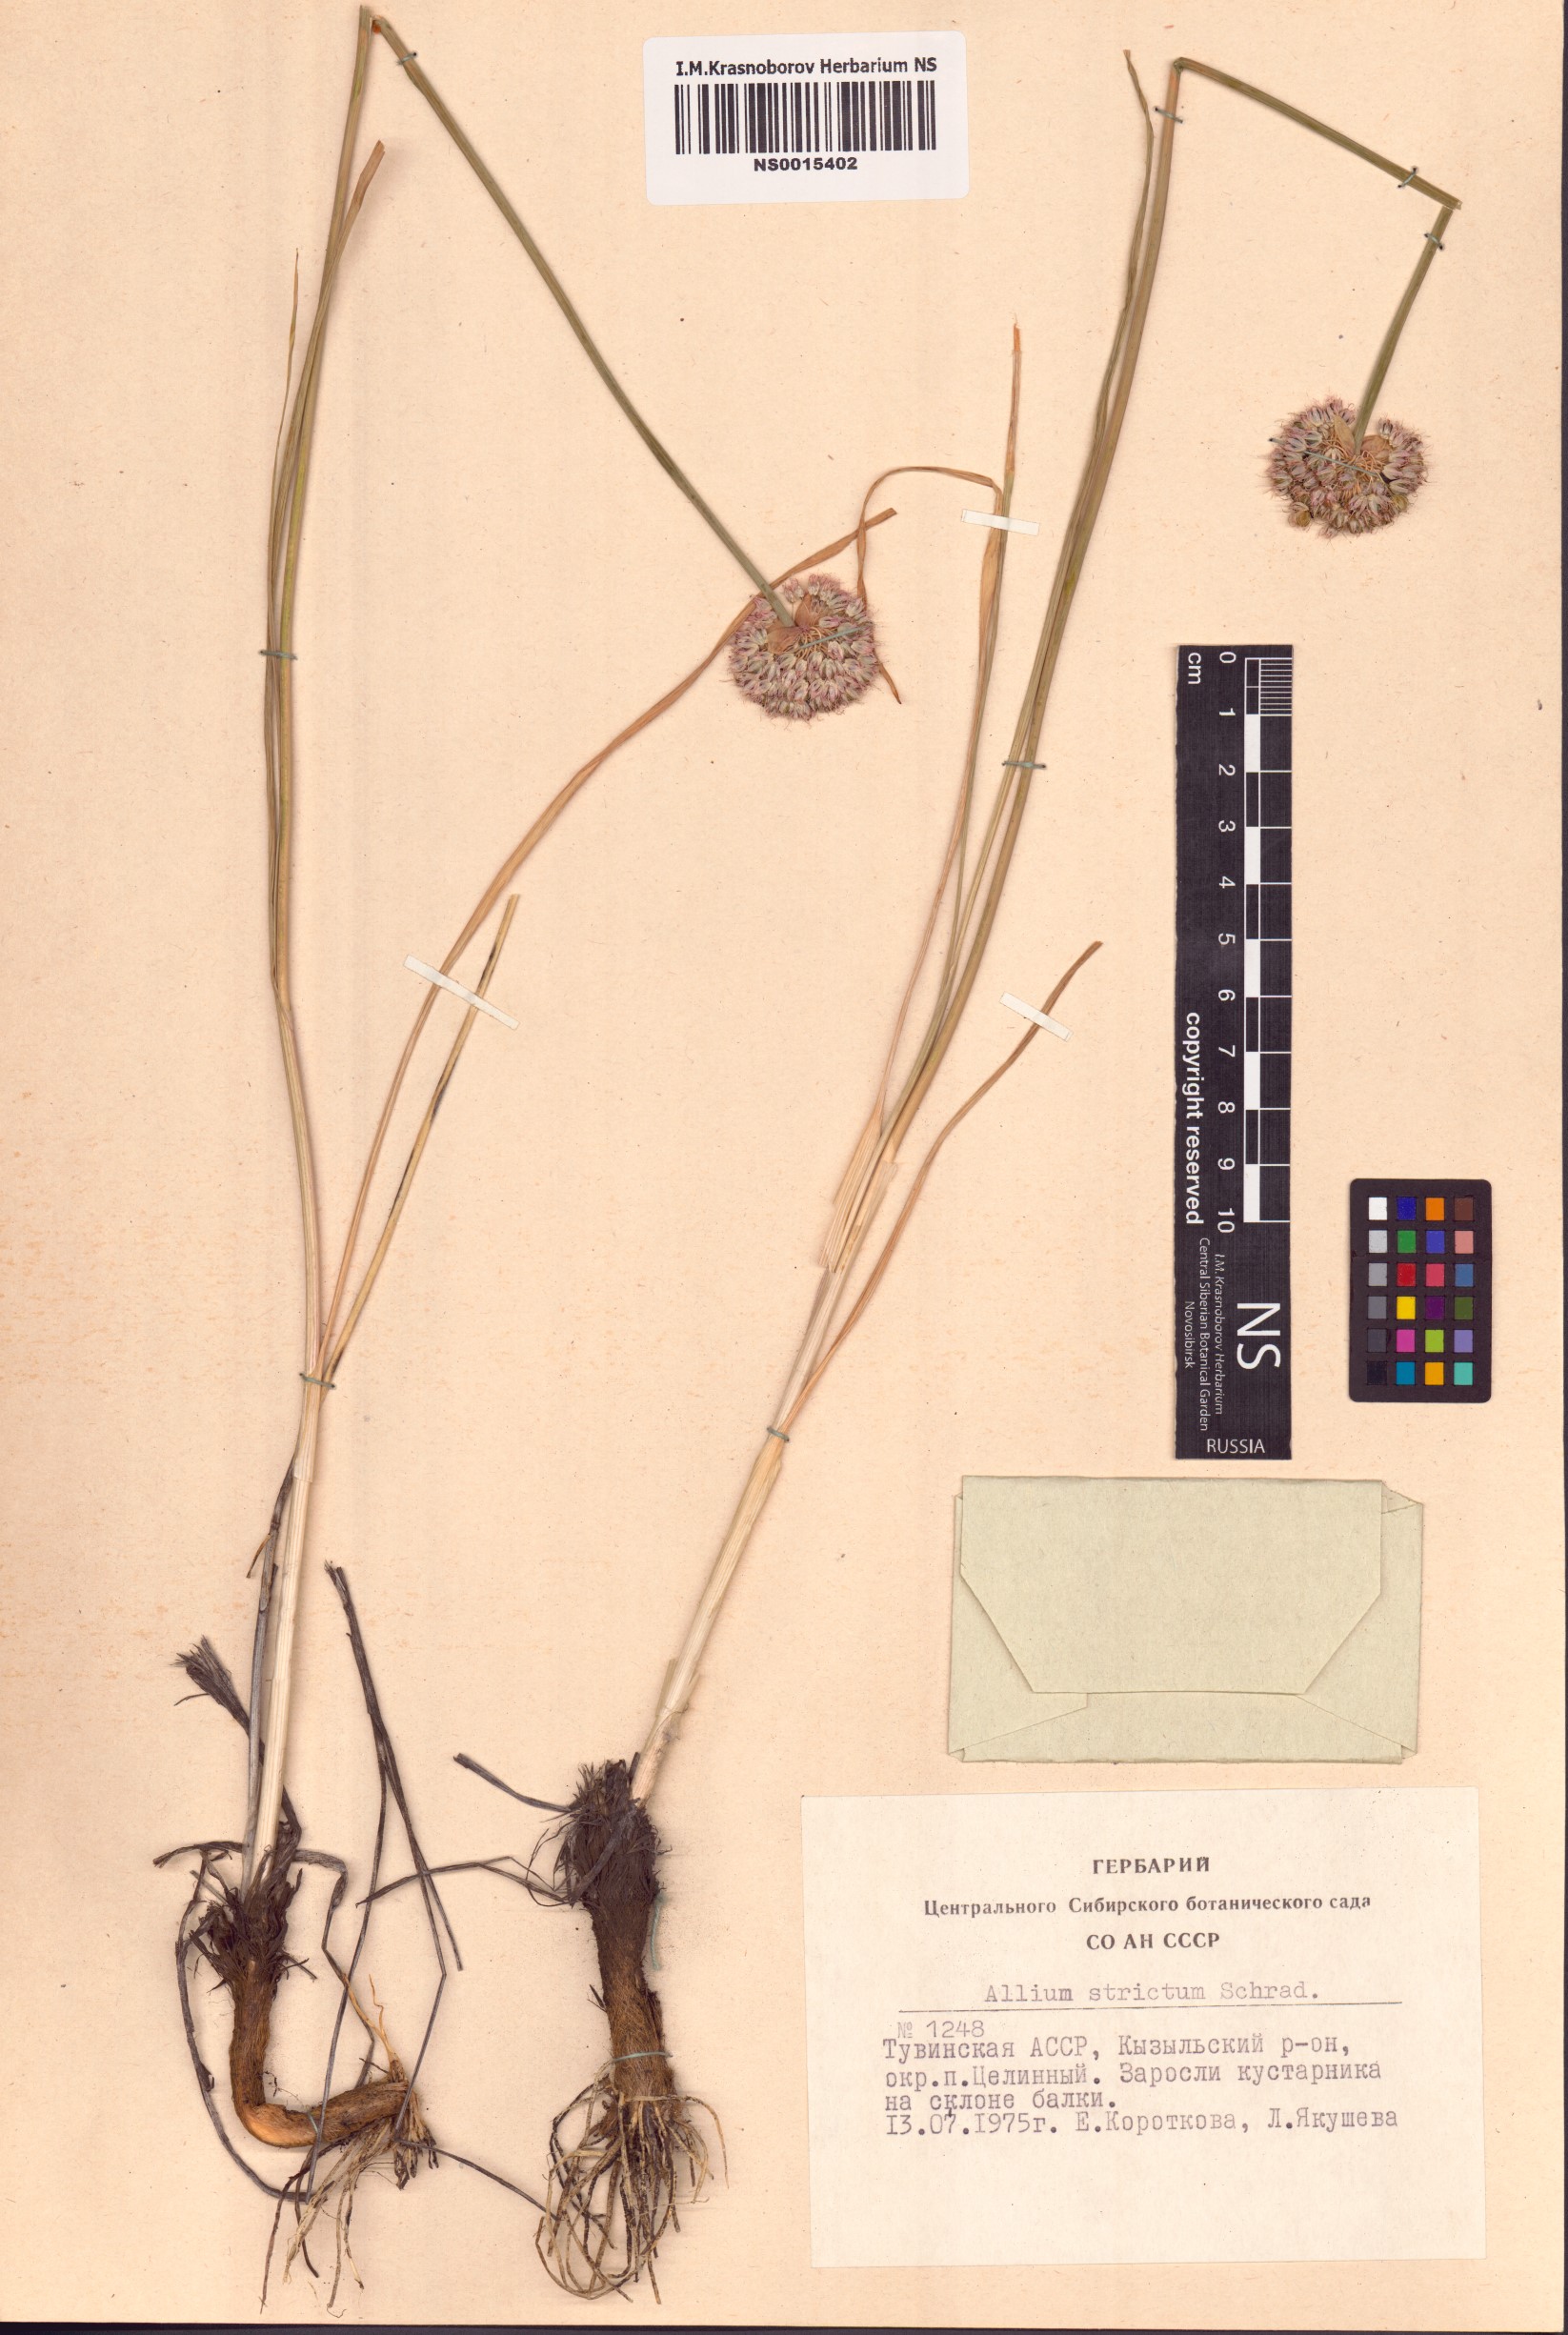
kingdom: Plantae
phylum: Tracheophyta
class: Liliopsida
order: Asparagales
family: Amaryllidaceae
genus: Allium
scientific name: Allium strictum
